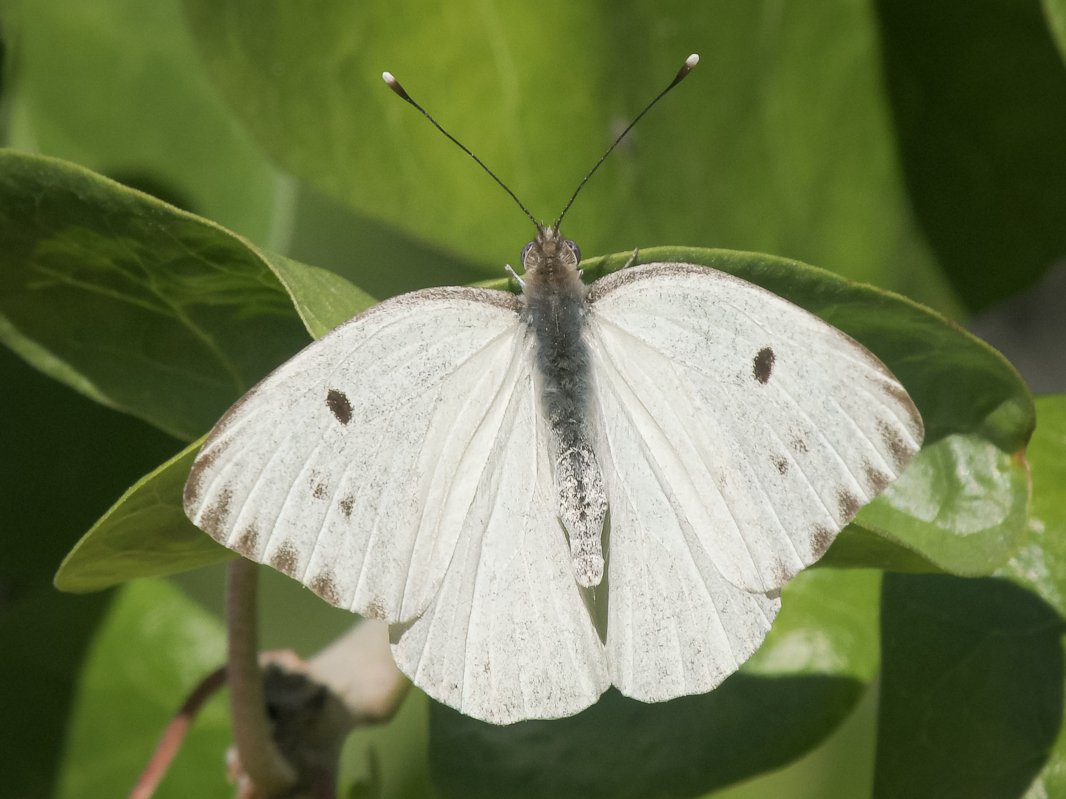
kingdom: Animalia
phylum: Arthropoda
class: Insecta
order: Lepidoptera
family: Pieridae
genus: Ganyra
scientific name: Ganyra howarthi
